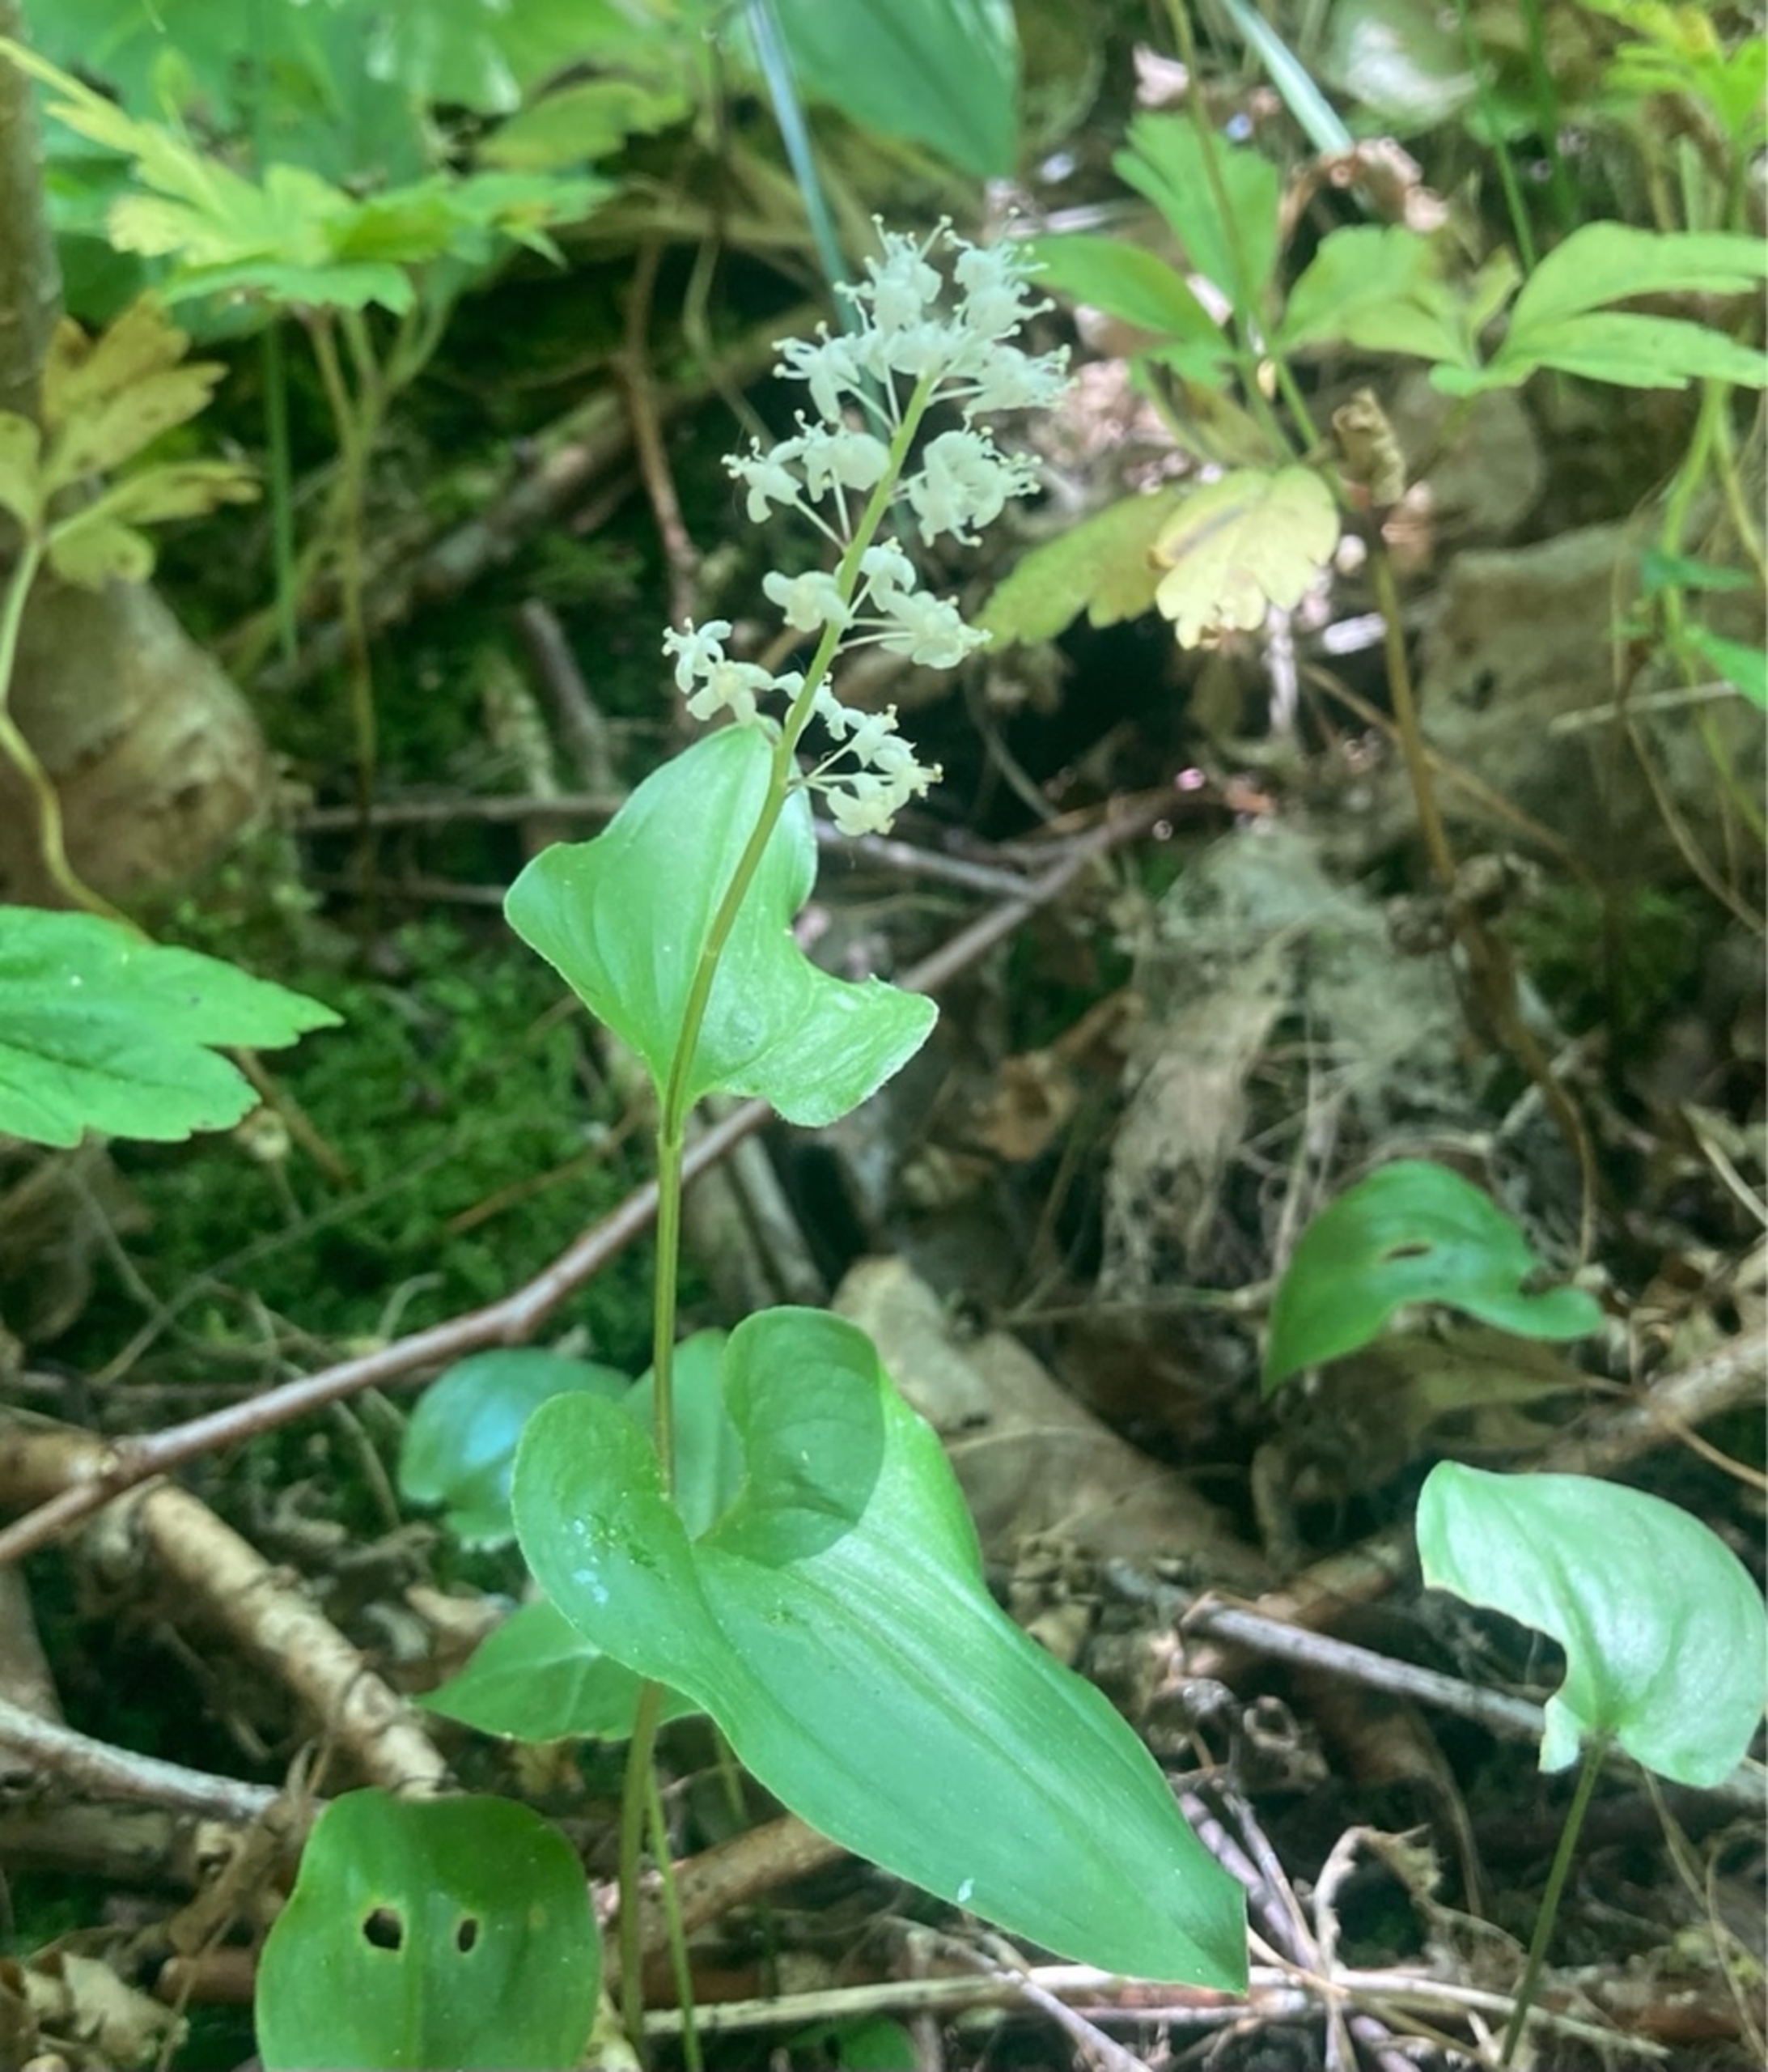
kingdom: Plantae
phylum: Tracheophyta
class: Liliopsida
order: Asparagales
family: Asparagaceae
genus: Maianthemum
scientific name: Maianthemum bifolium
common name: Majblomst
